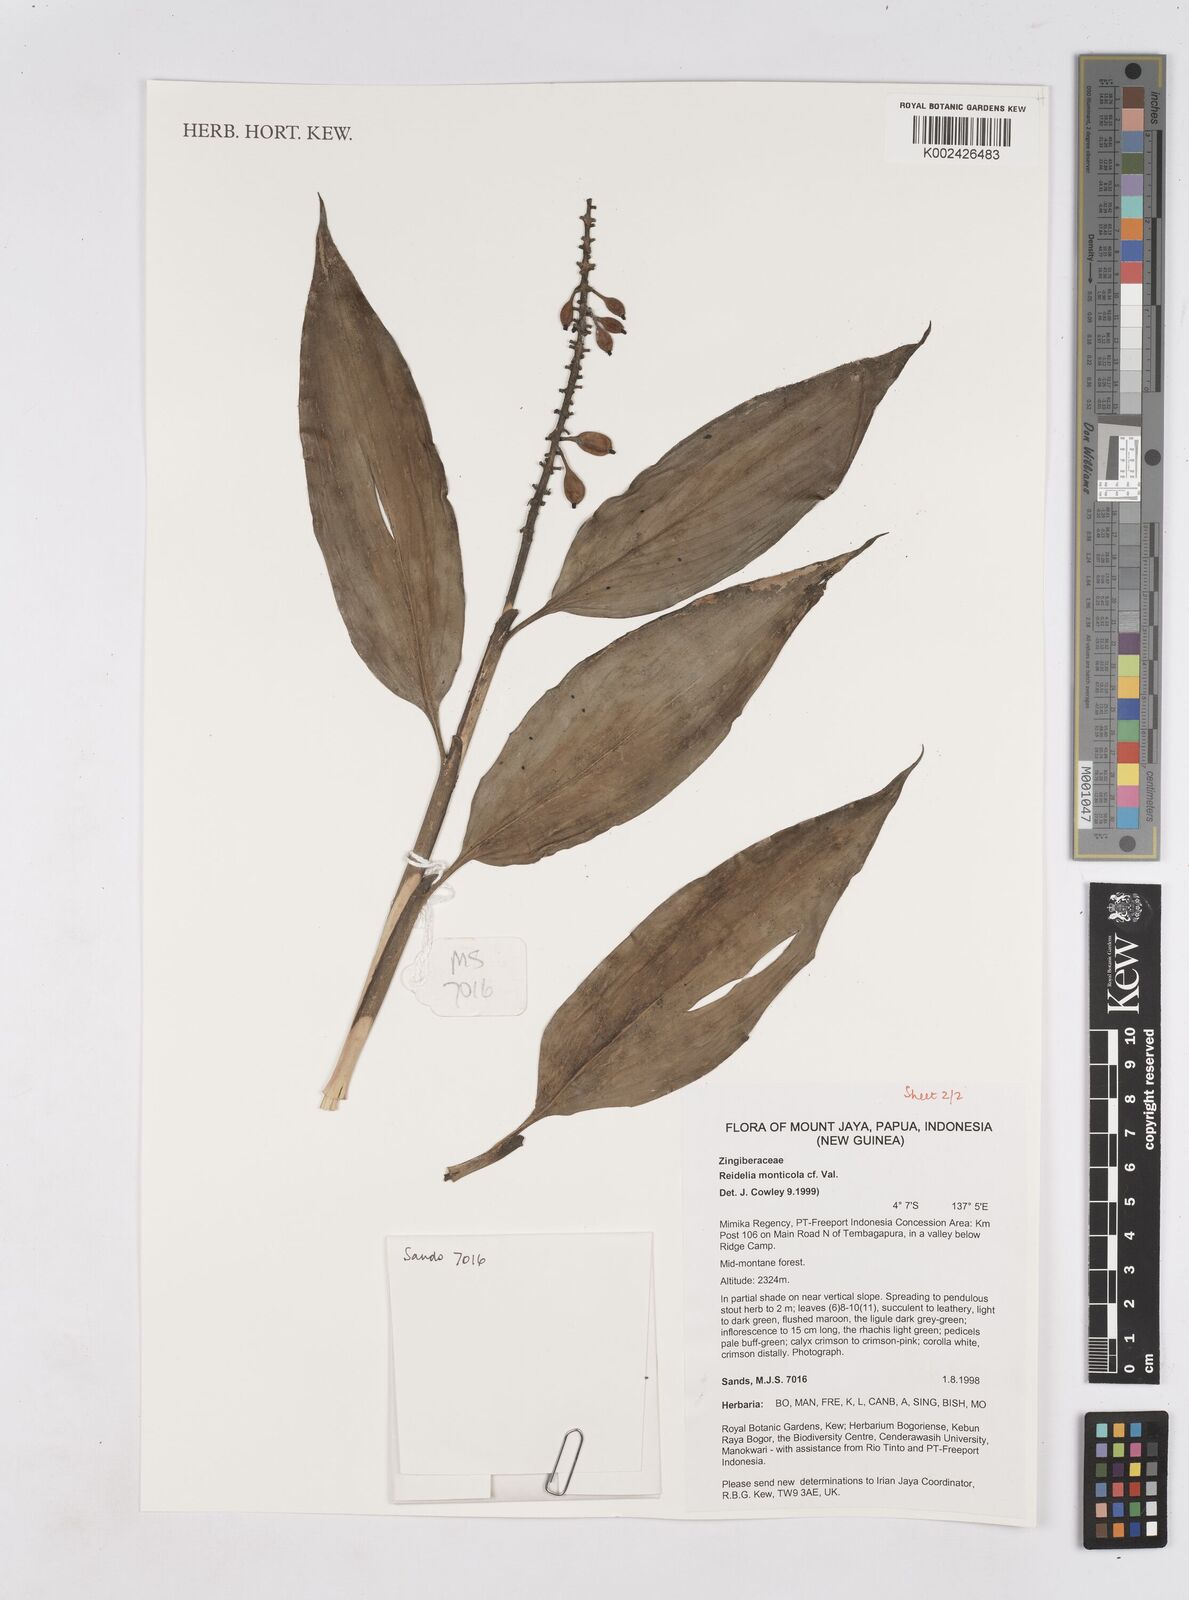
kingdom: Plantae
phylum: Tracheophyta
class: Liliopsida
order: Zingiberales
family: Zingiberaceae
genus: Riedelia
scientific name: Riedelia monticola
